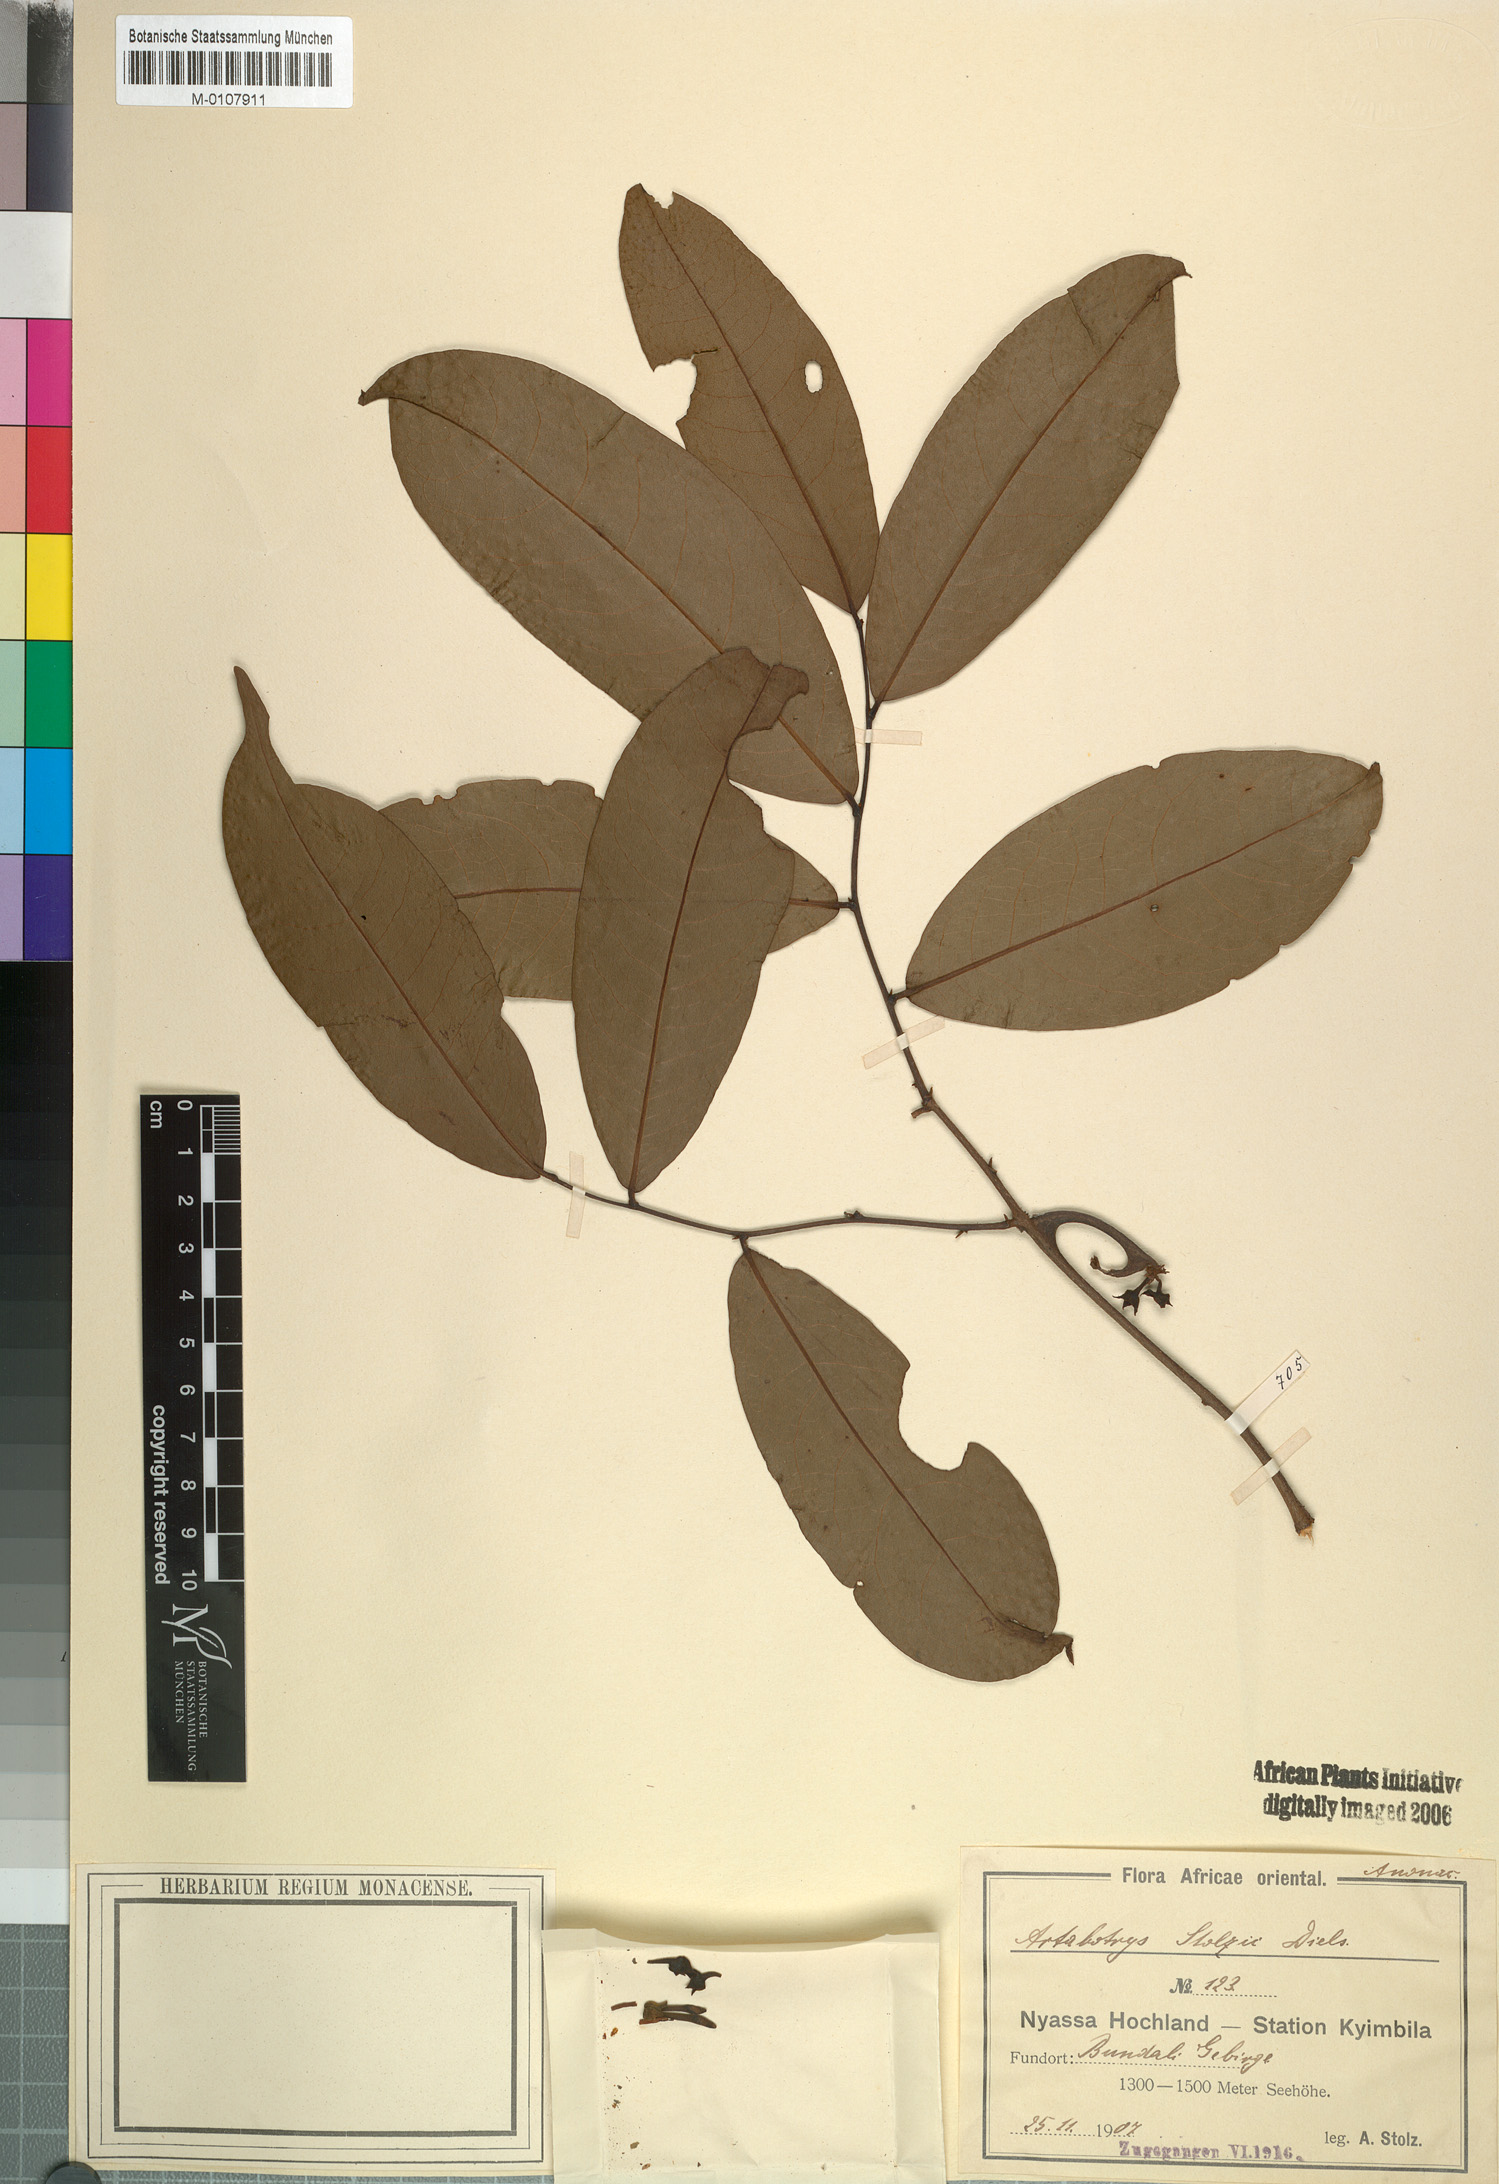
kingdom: Plantae
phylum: Tracheophyta
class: Magnoliopsida
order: Magnoliales
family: Annonaceae
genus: Artabotrys
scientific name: Artabotrys stolzii
